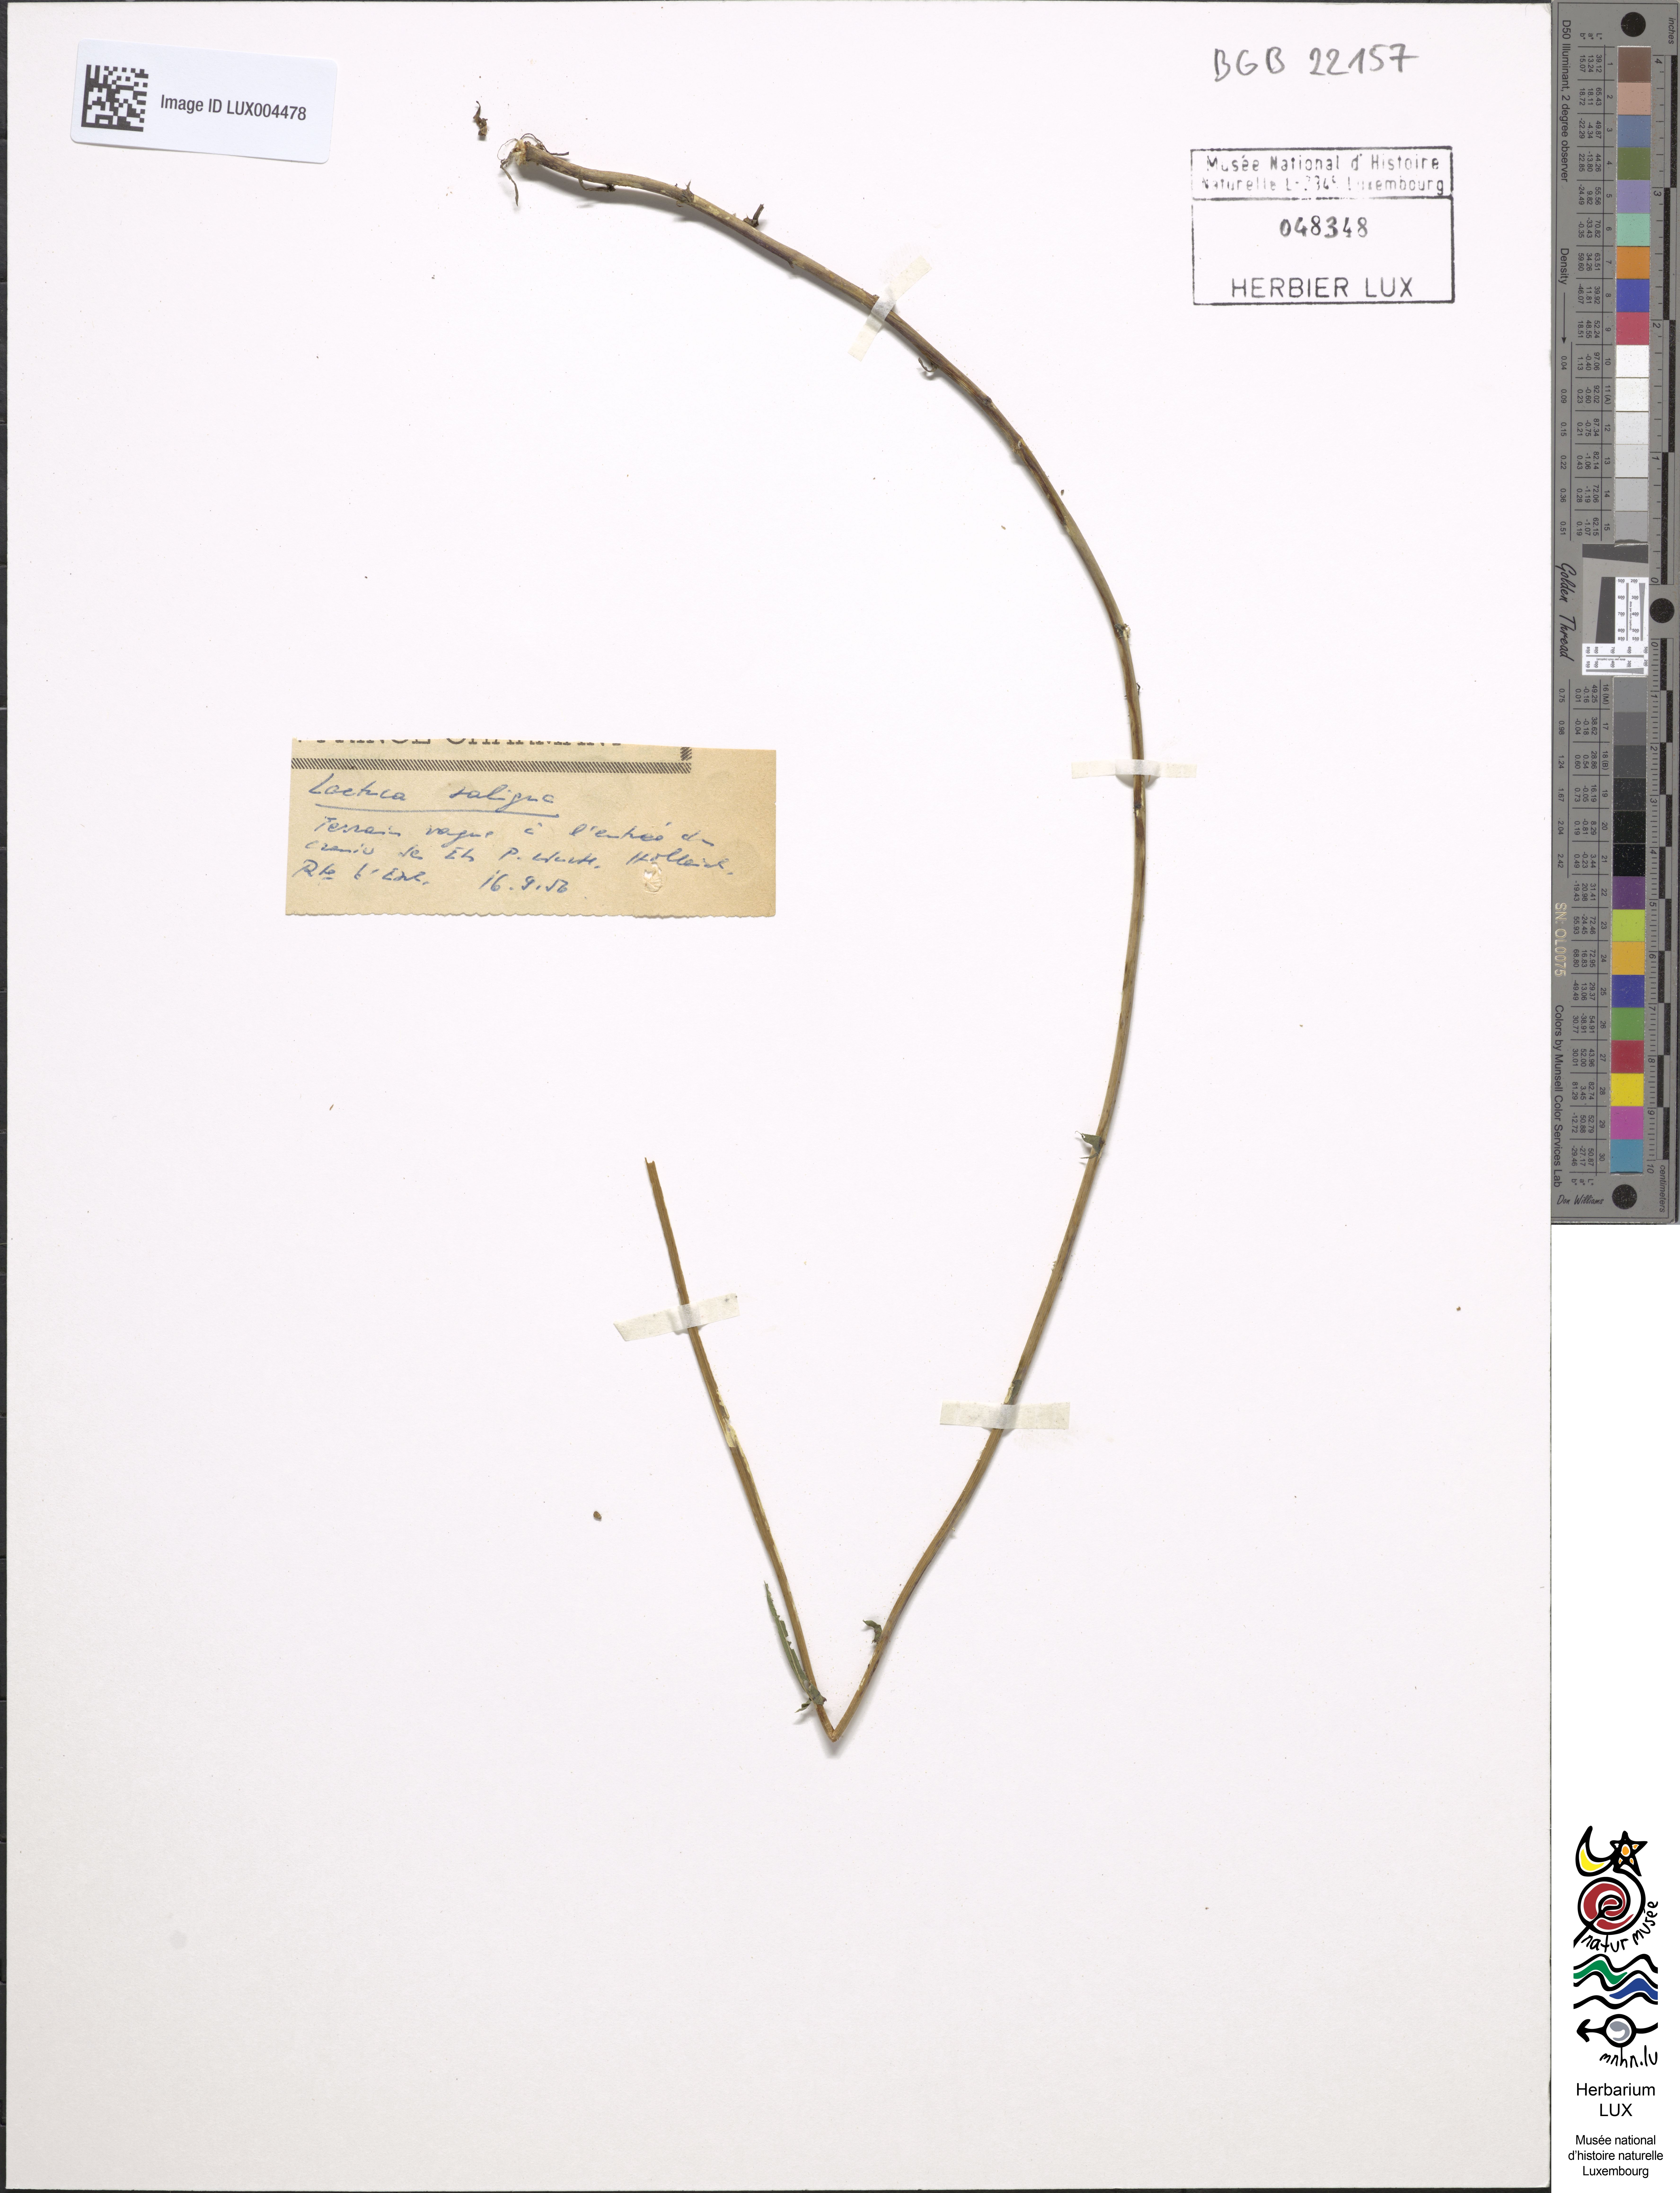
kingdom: Plantae
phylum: Tracheophyta
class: Magnoliopsida
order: Asterales
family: Asteraceae
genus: Lactuca
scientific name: Lactuca saligna
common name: Wild lettuce
